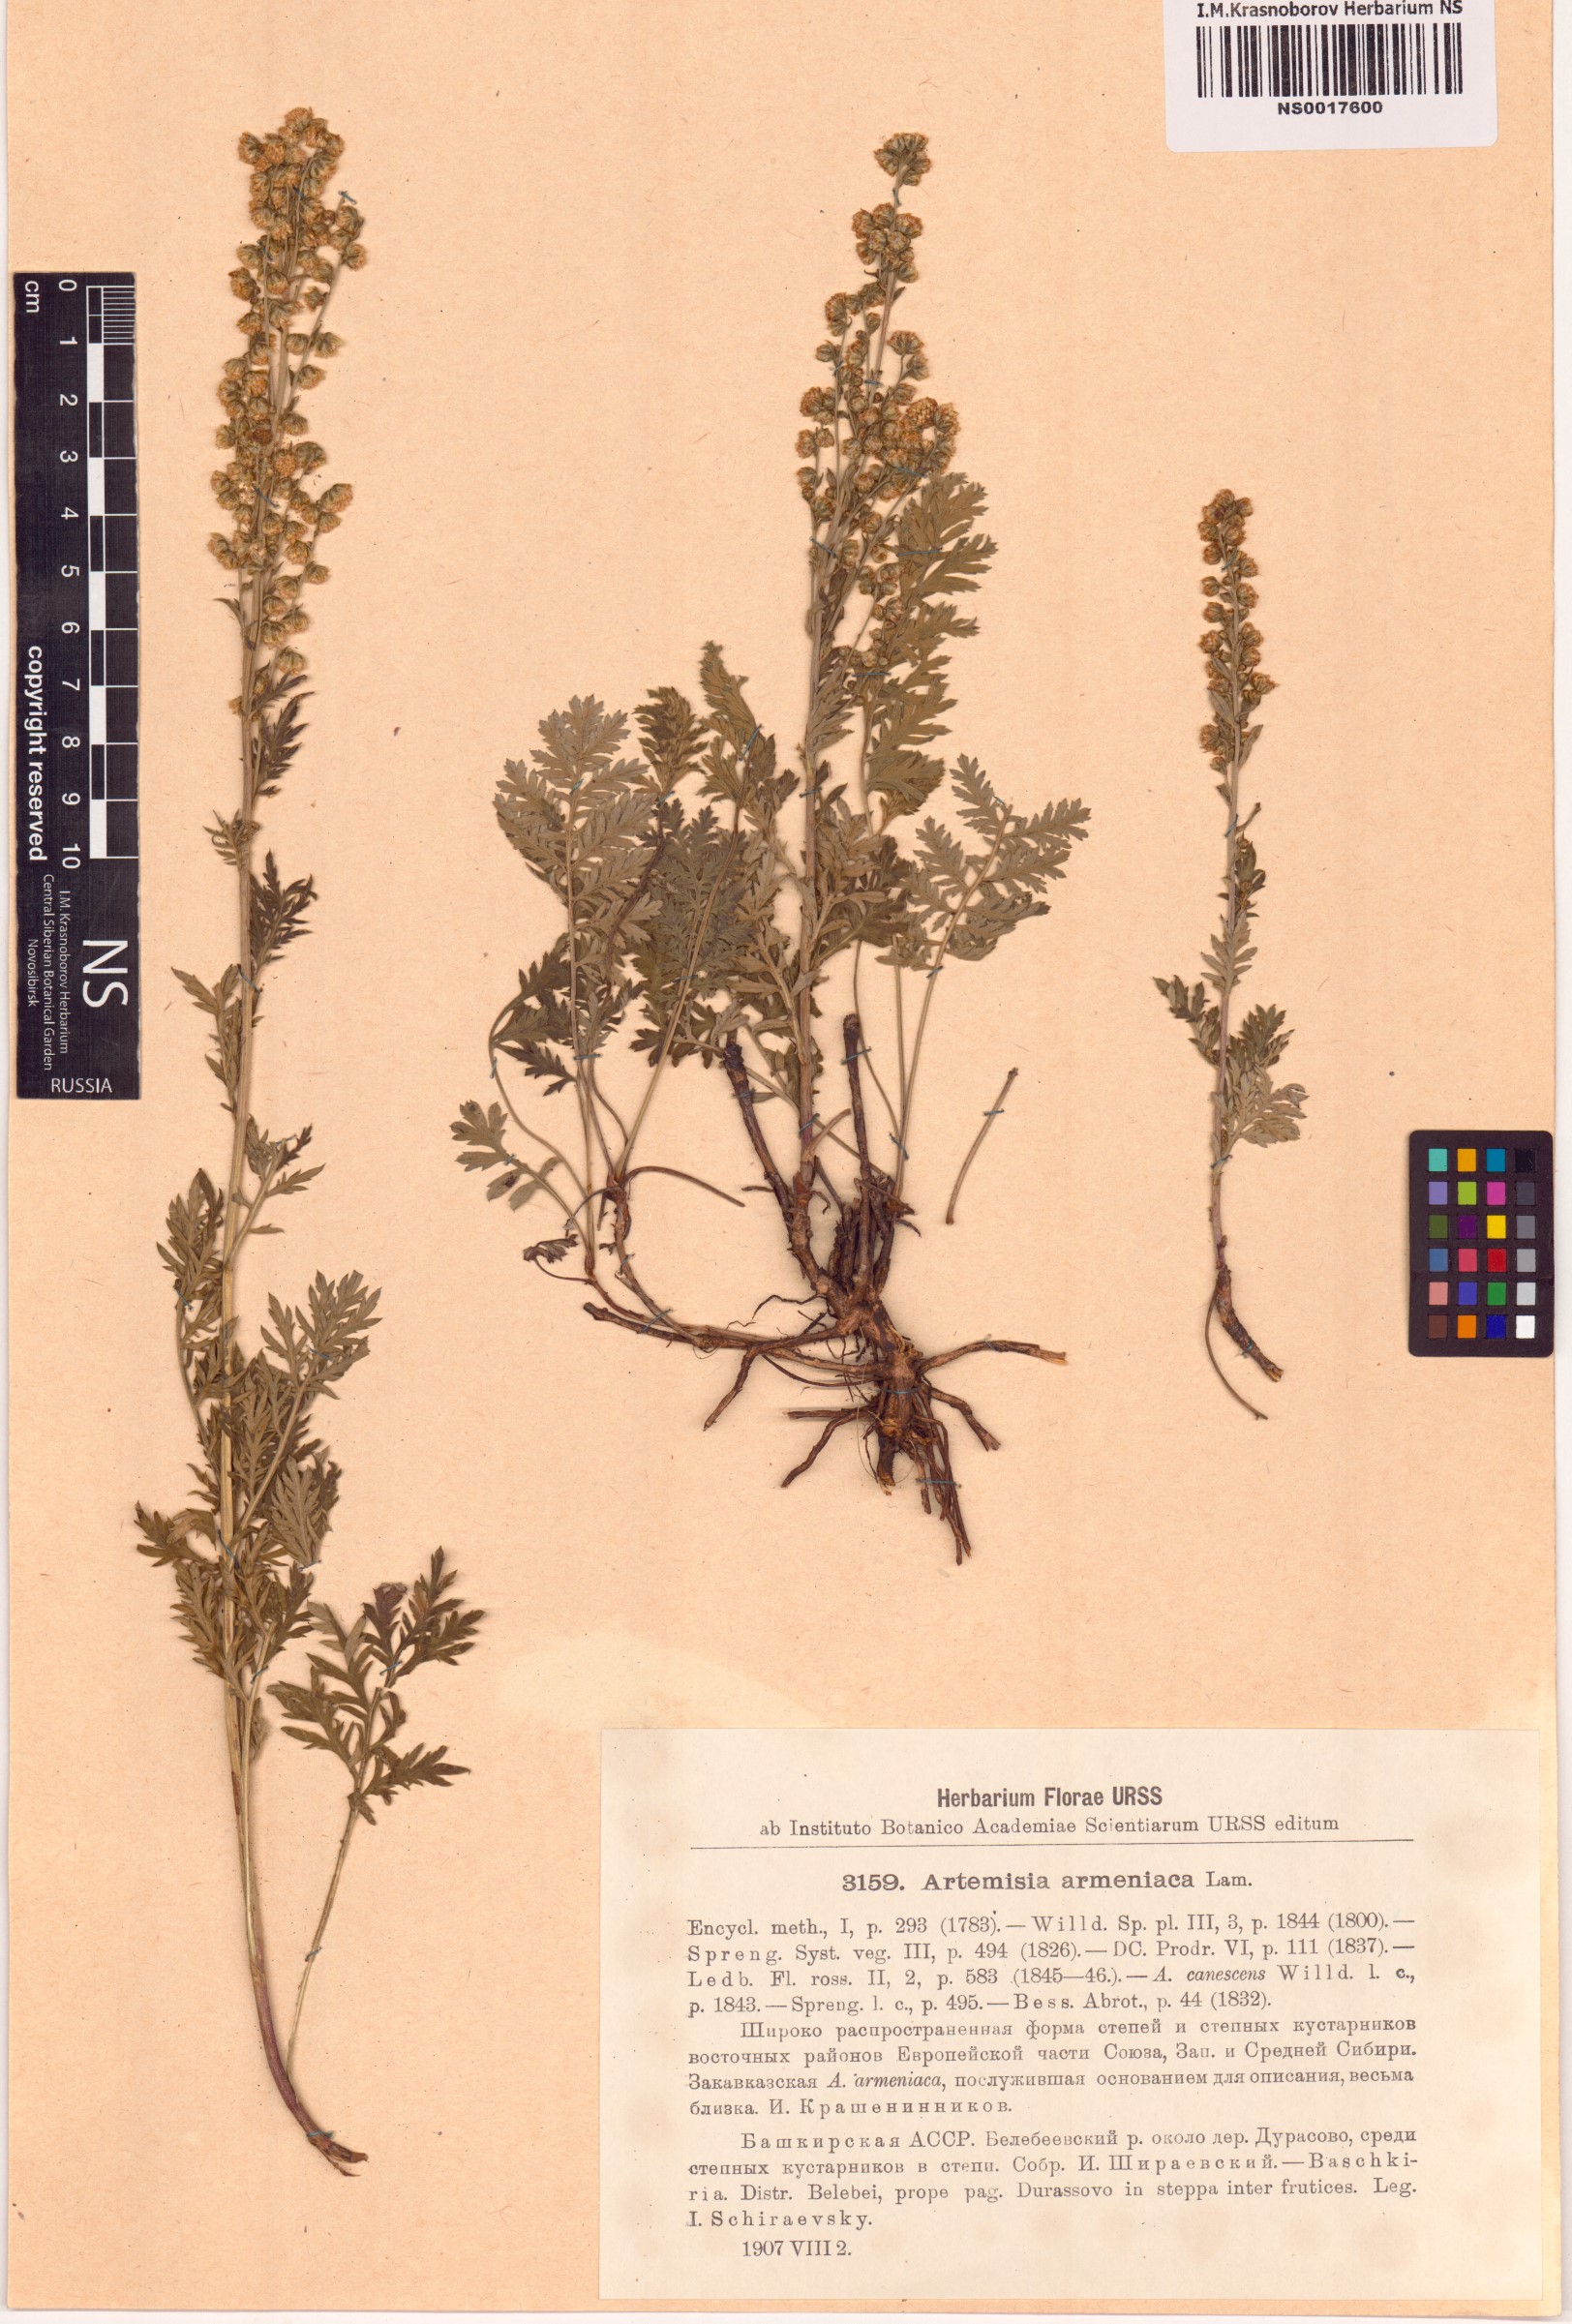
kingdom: Plantae
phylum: Tracheophyta
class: Magnoliopsida
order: Asterales
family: Asteraceae
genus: Artemisia
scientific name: Artemisia armeniaca
